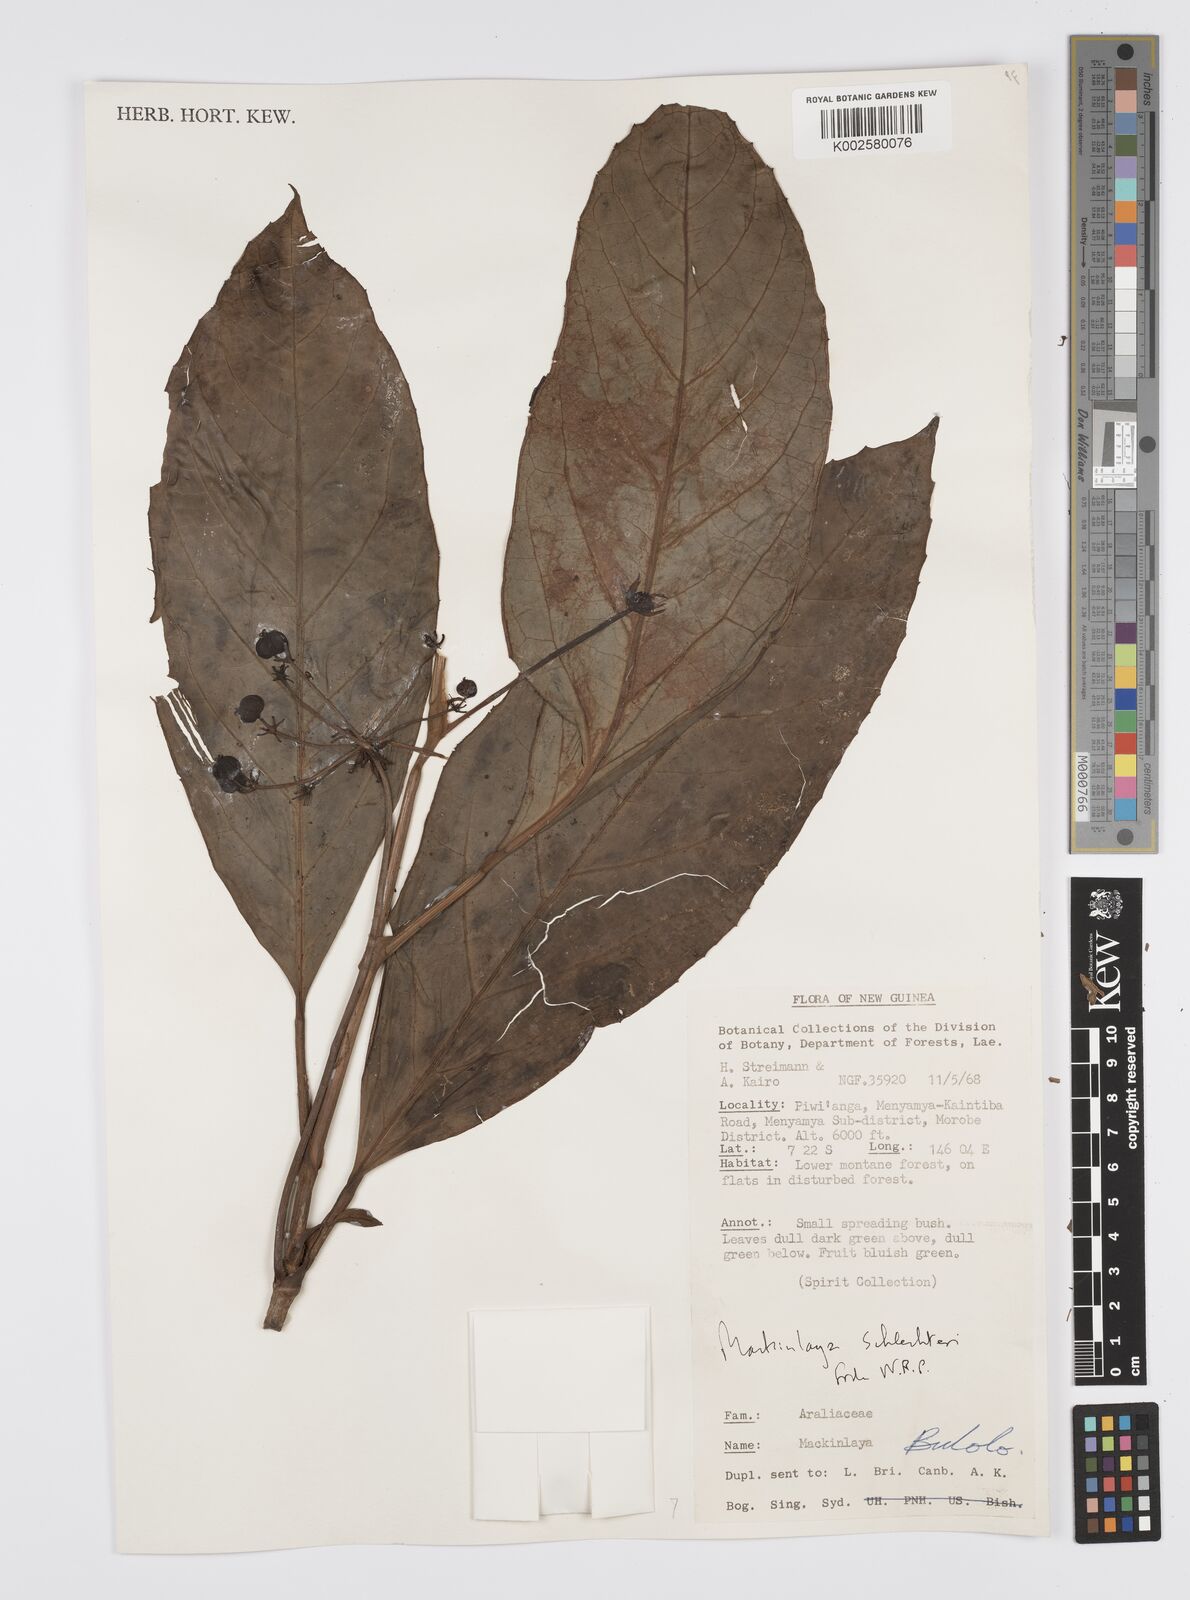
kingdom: Plantae
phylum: Tracheophyta
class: Magnoliopsida
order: Apiales
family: Apiaceae
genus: Mackinlaya
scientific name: Mackinlaya schlechteri
